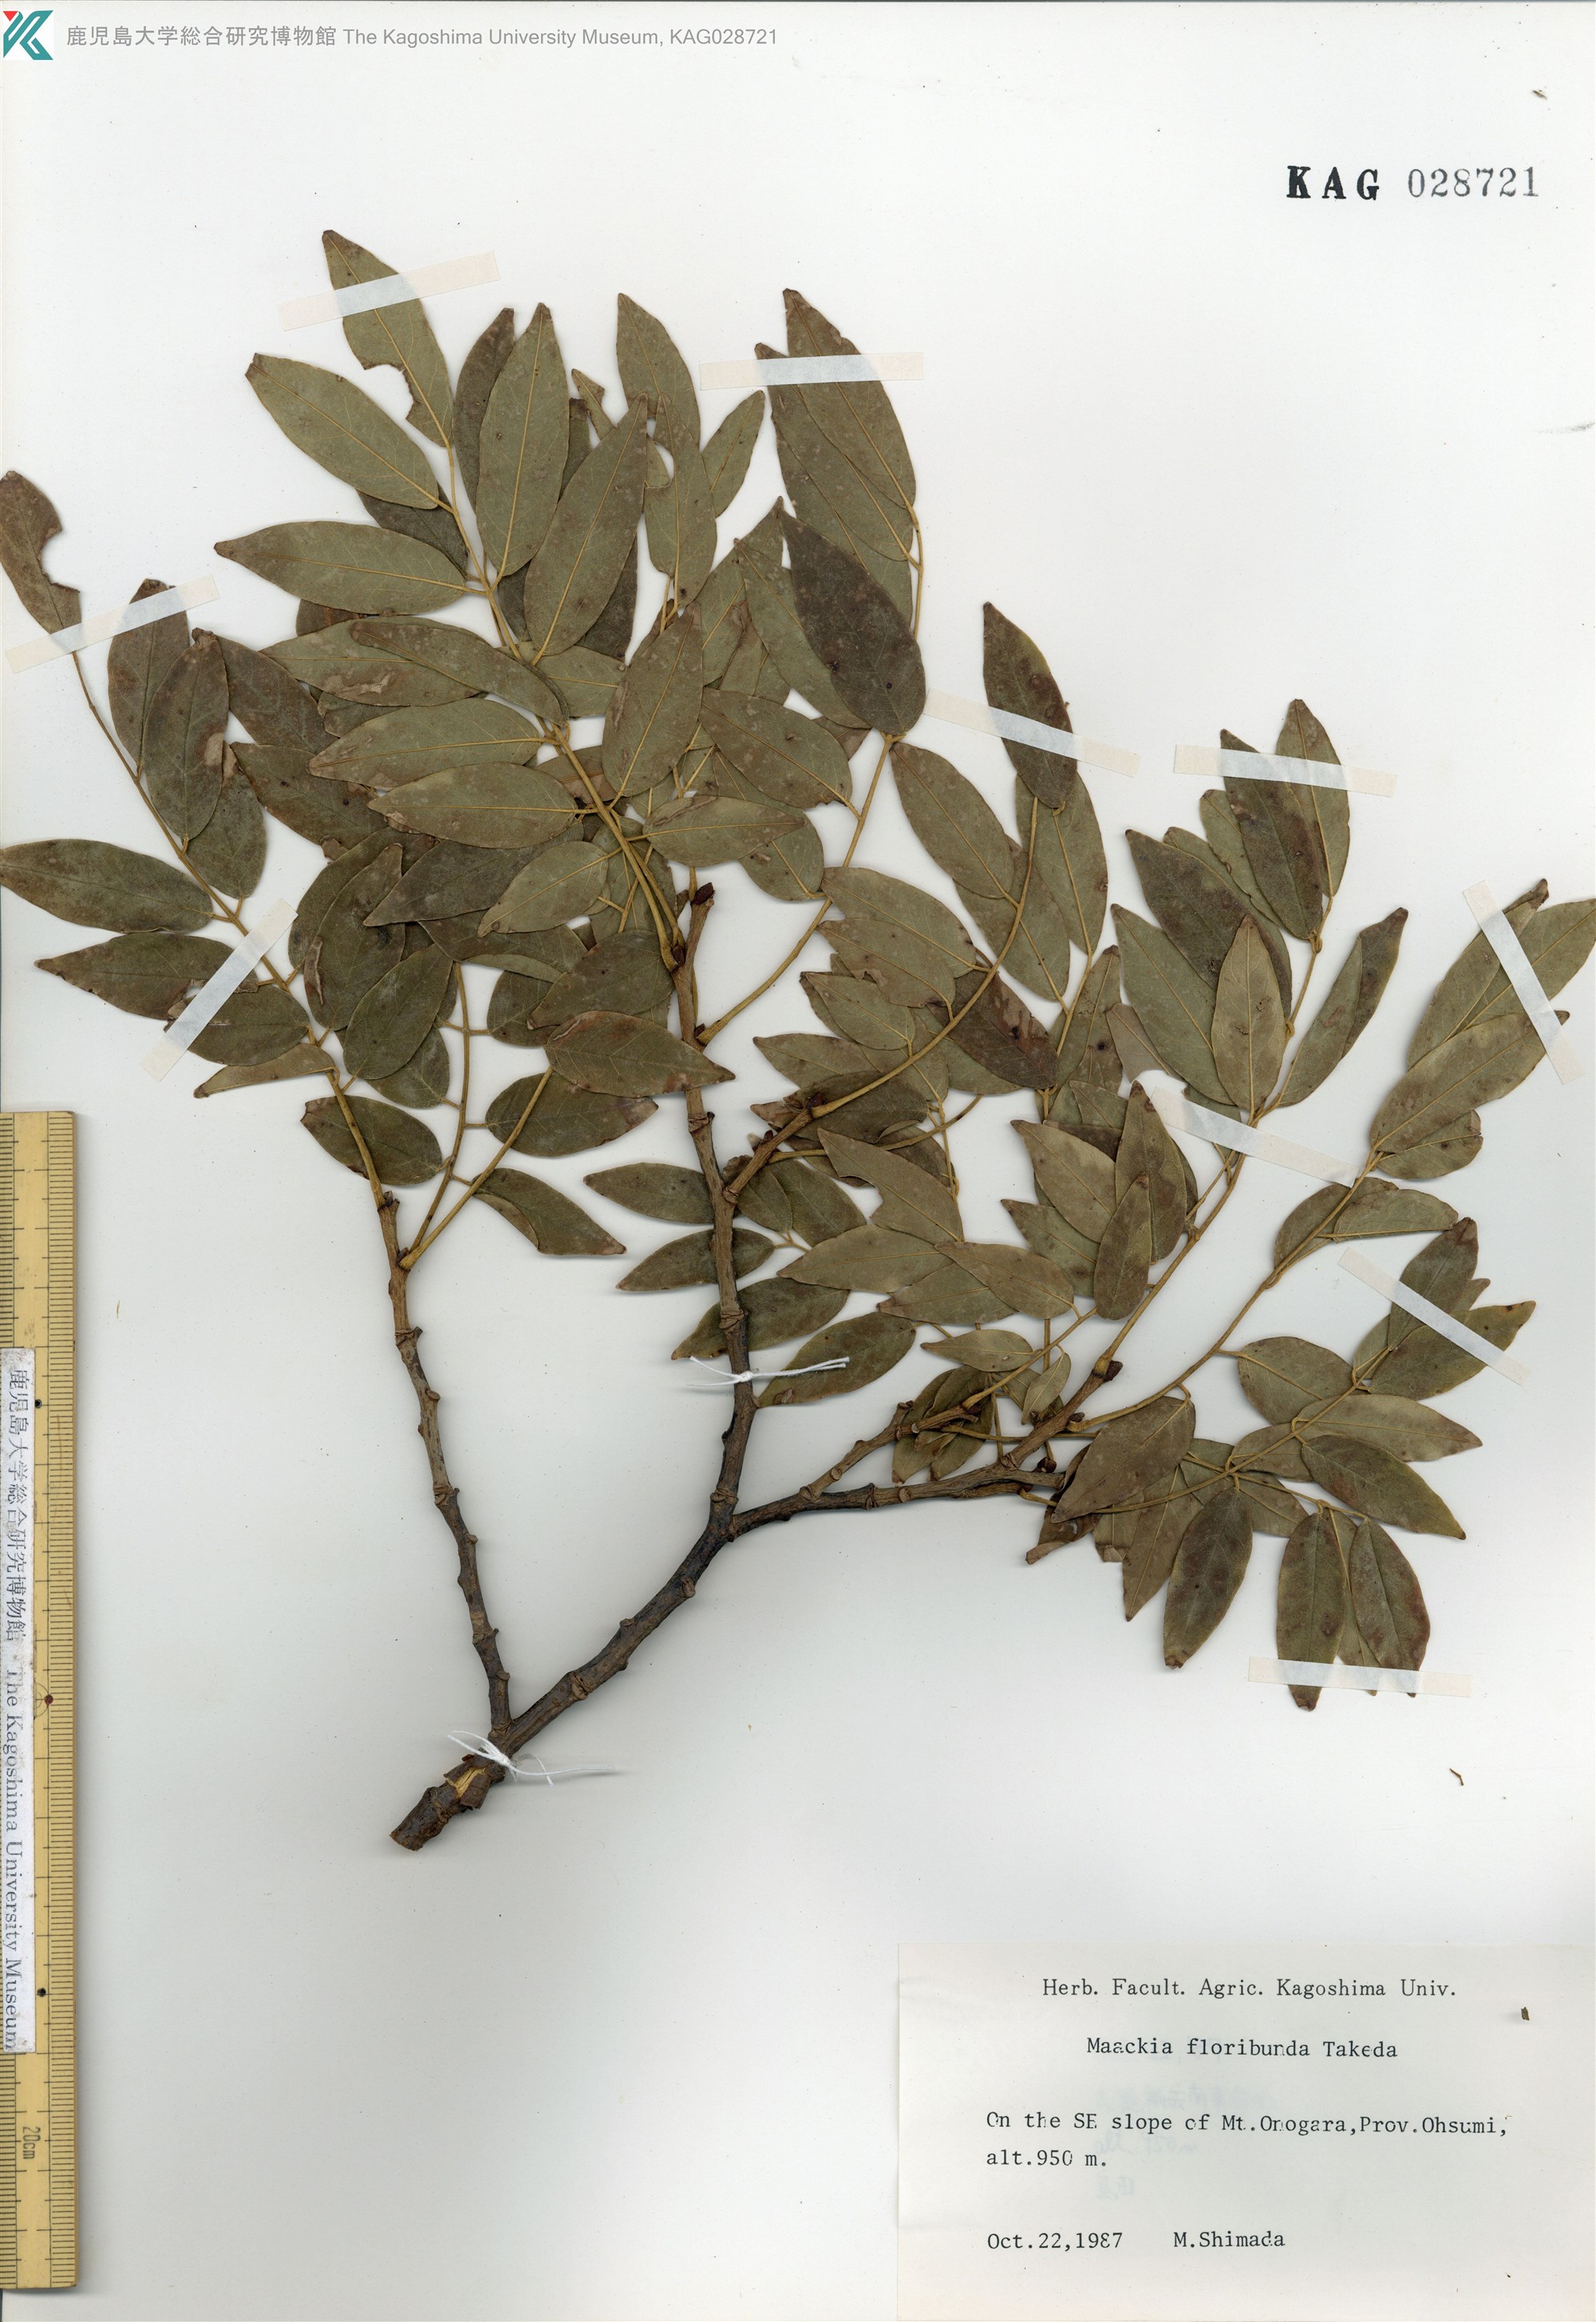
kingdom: Plantae
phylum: Tracheophyta
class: Magnoliopsida
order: Fabales
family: Fabaceae
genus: Maackia
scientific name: Maackia amurensis
